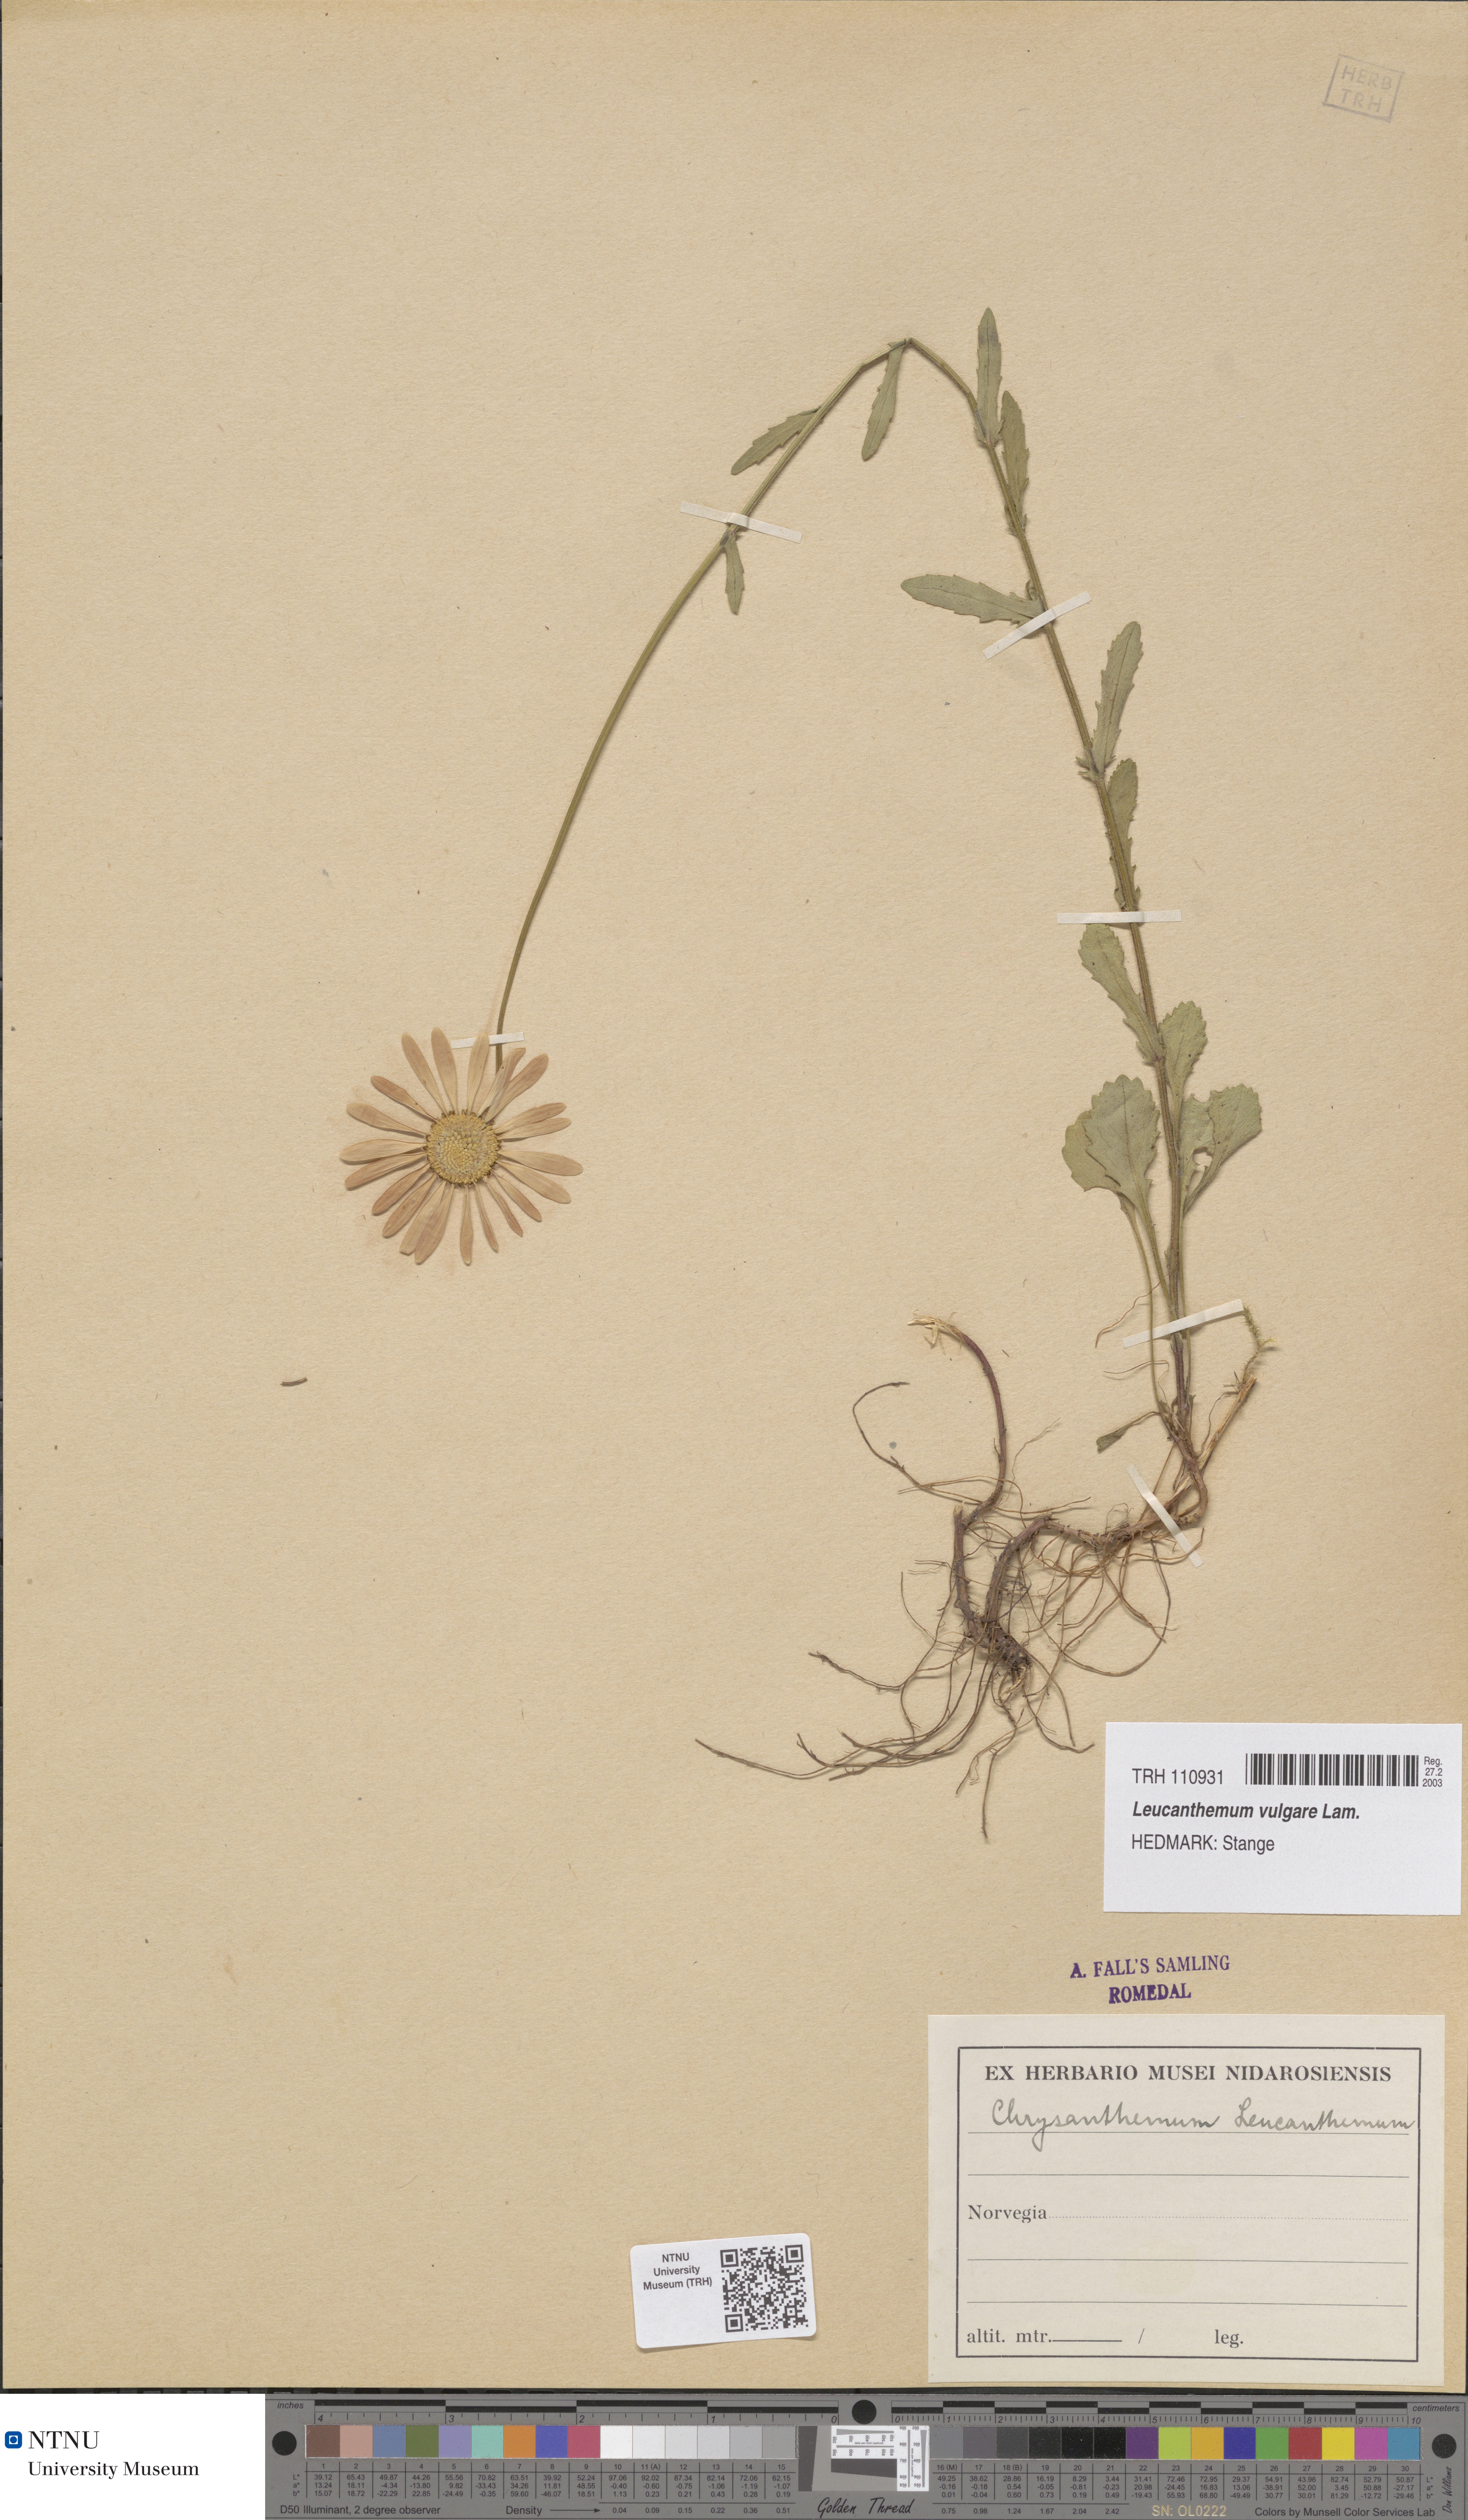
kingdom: Plantae
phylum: Tracheophyta
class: Magnoliopsida
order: Asterales
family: Asteraceae
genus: Leucanthemum
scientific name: Leucanthemum vulgare
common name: Oxeye daisy
